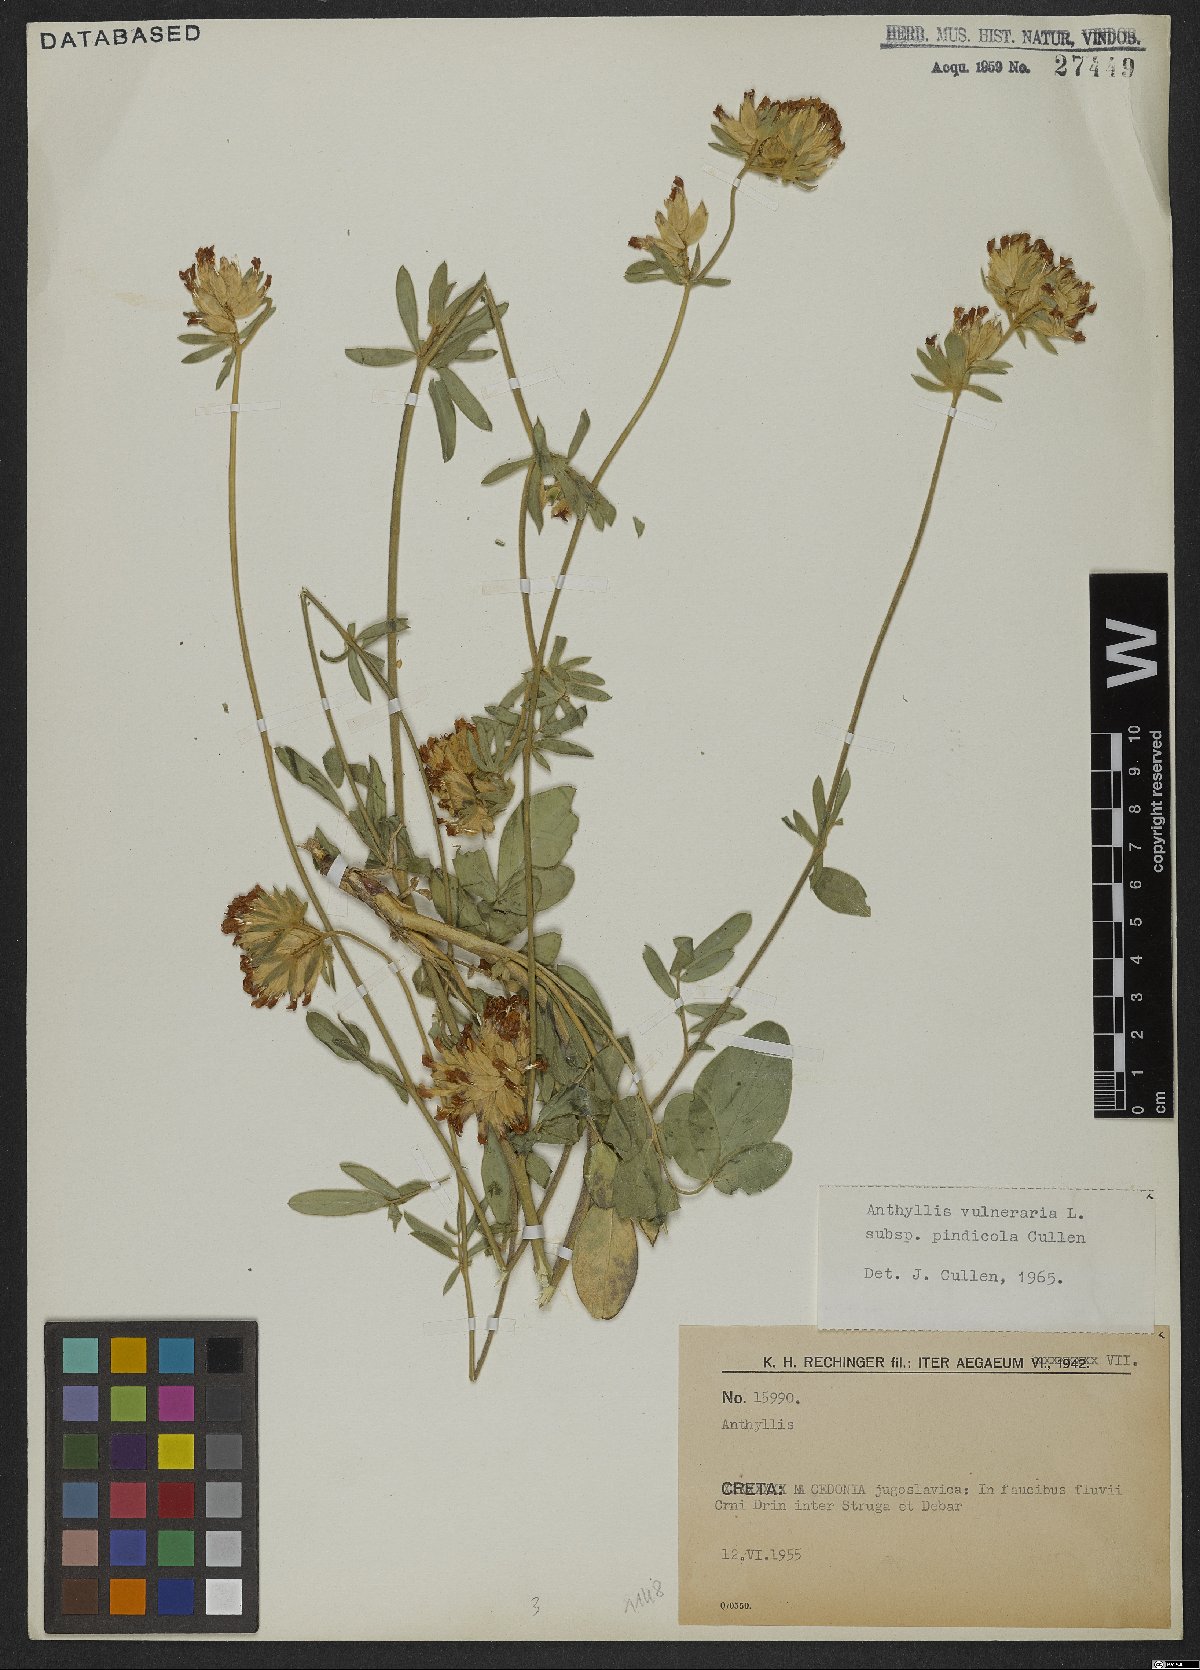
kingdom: Plantae
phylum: Tracheophyta
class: Magnoliopsida
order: Fabales
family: Fabaceae
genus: Anthyllis
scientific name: Anthyllis vulneraria
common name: Kidney vetch
